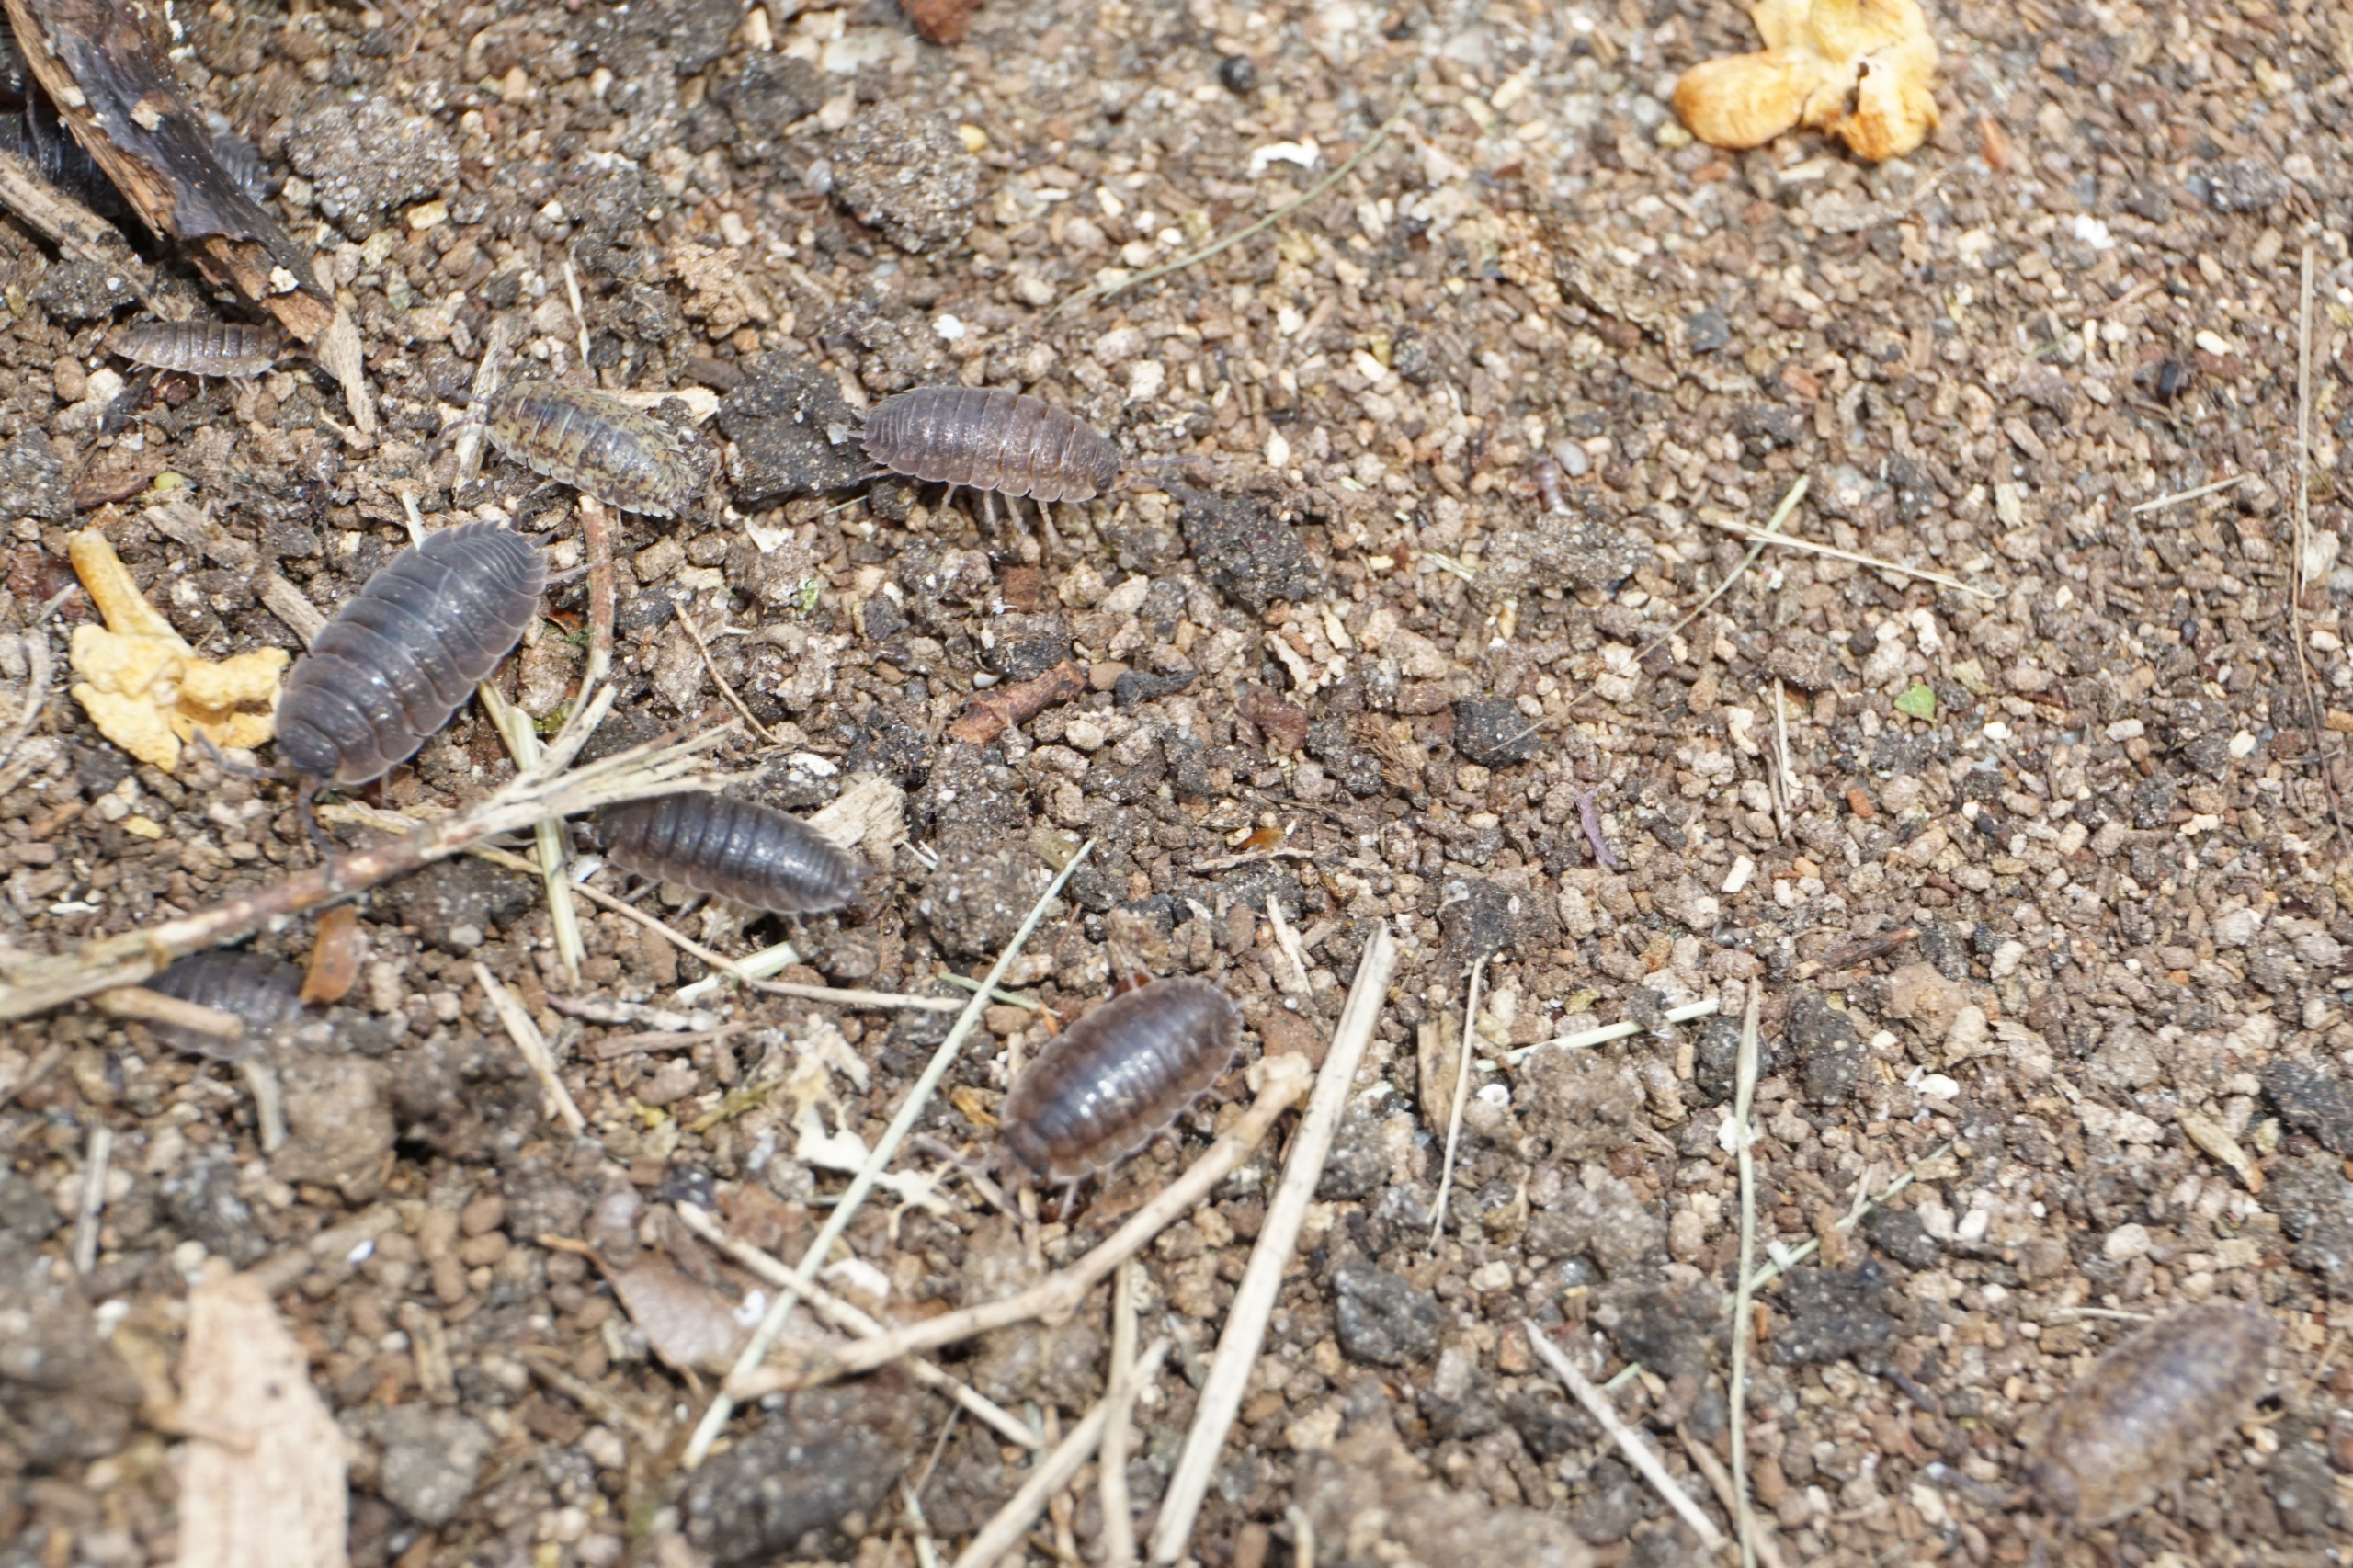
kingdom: Animalia
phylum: Arthropoda
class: Malacostraca
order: Isopoda
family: Porcellionidae
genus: Porcellio
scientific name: Porcellio scaber
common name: Grå bænkebider
